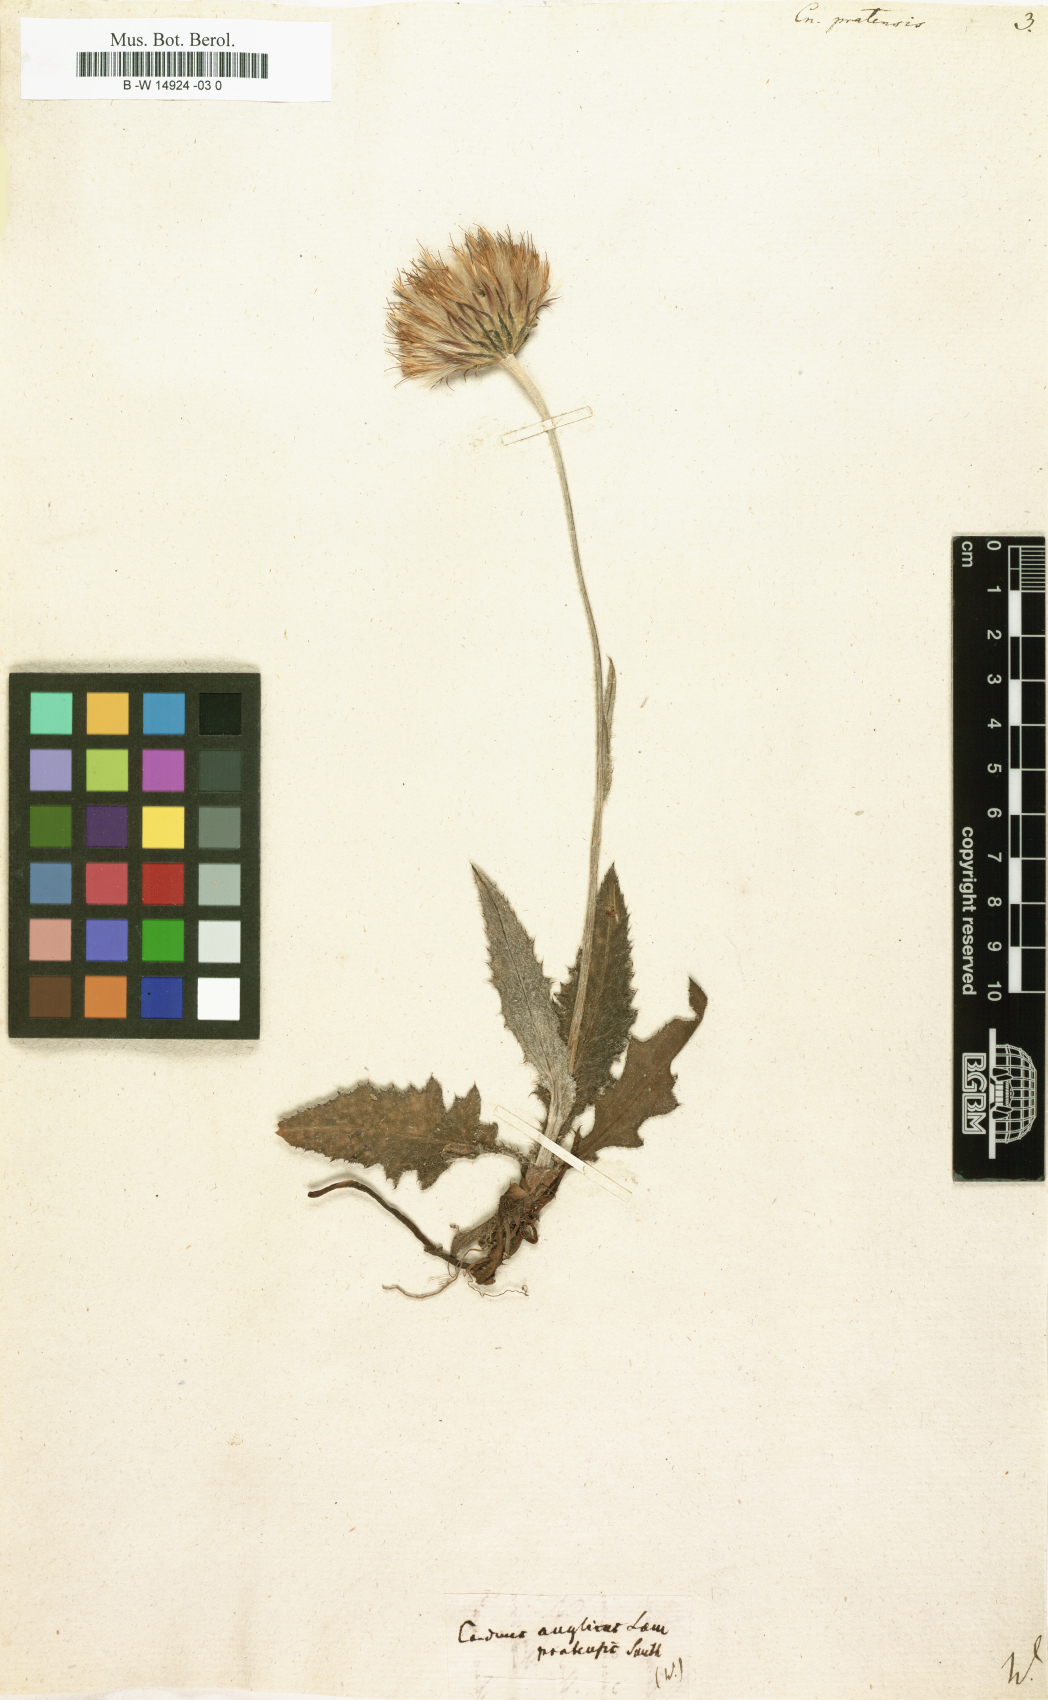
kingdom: Plantae
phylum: Tracheophyta
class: Magnoliopsida
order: Asterales
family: Asteraceae
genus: Cirsium
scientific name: Cirsium
